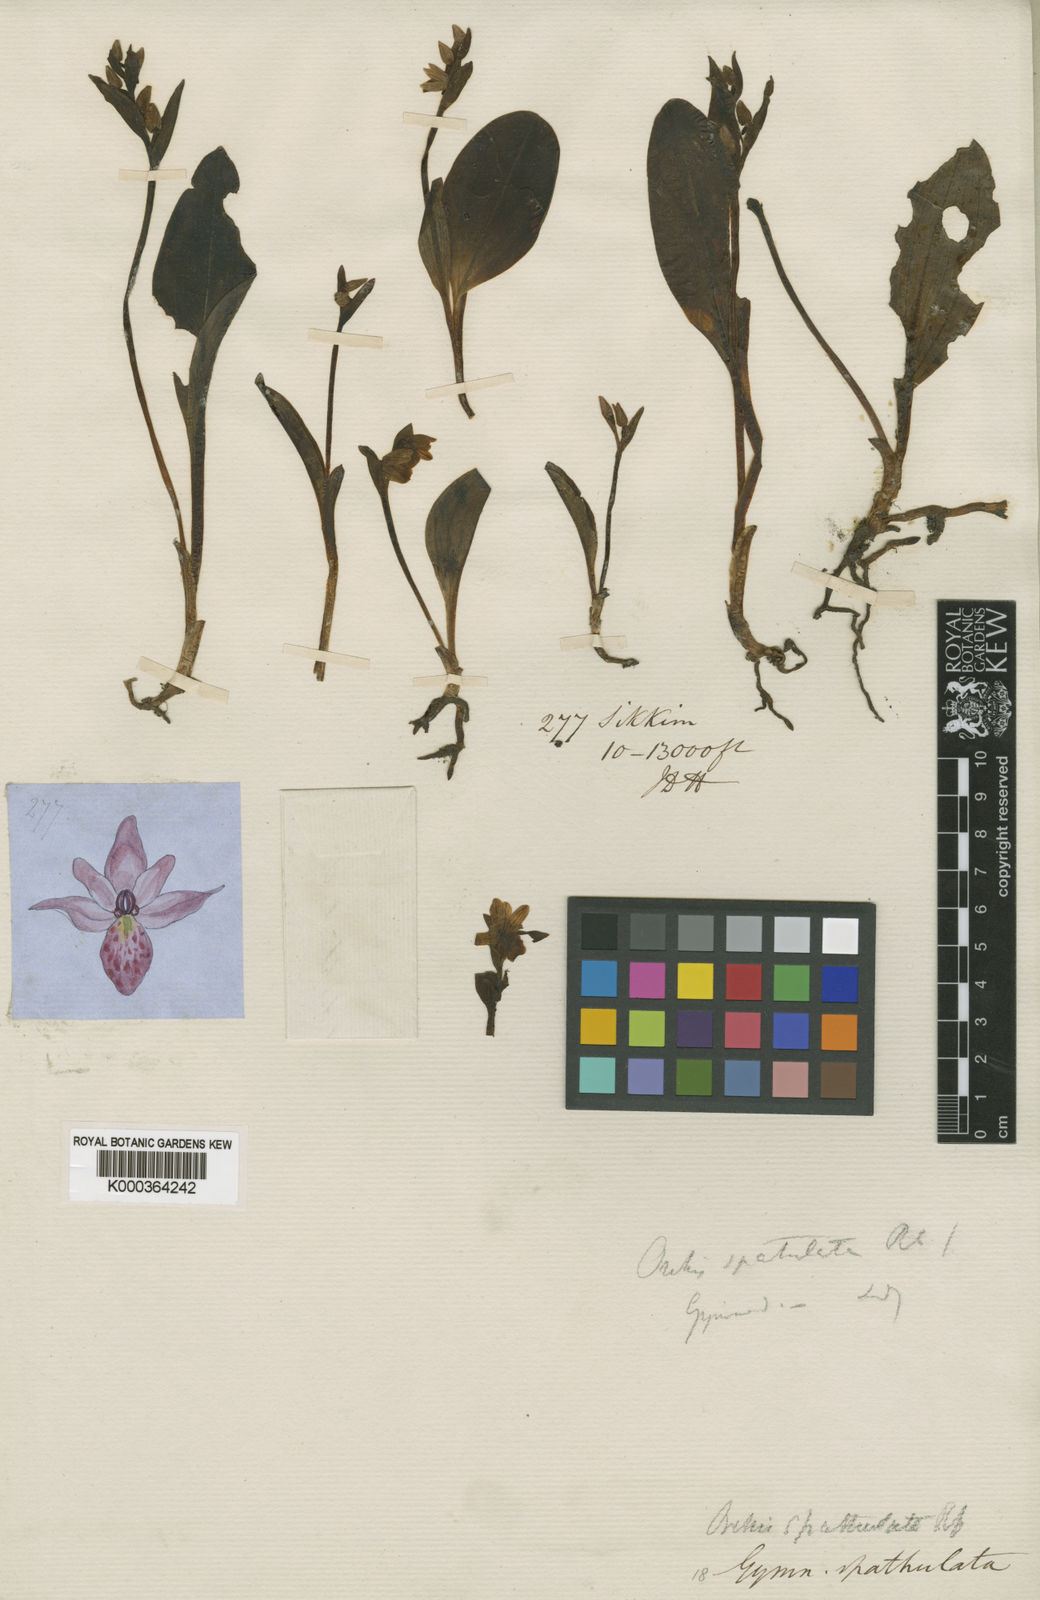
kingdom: Plantae
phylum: Tracheophyta
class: Liliopsida
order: Asparagales
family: Orchidaceae
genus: Galearis
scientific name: Galearis spathulata
